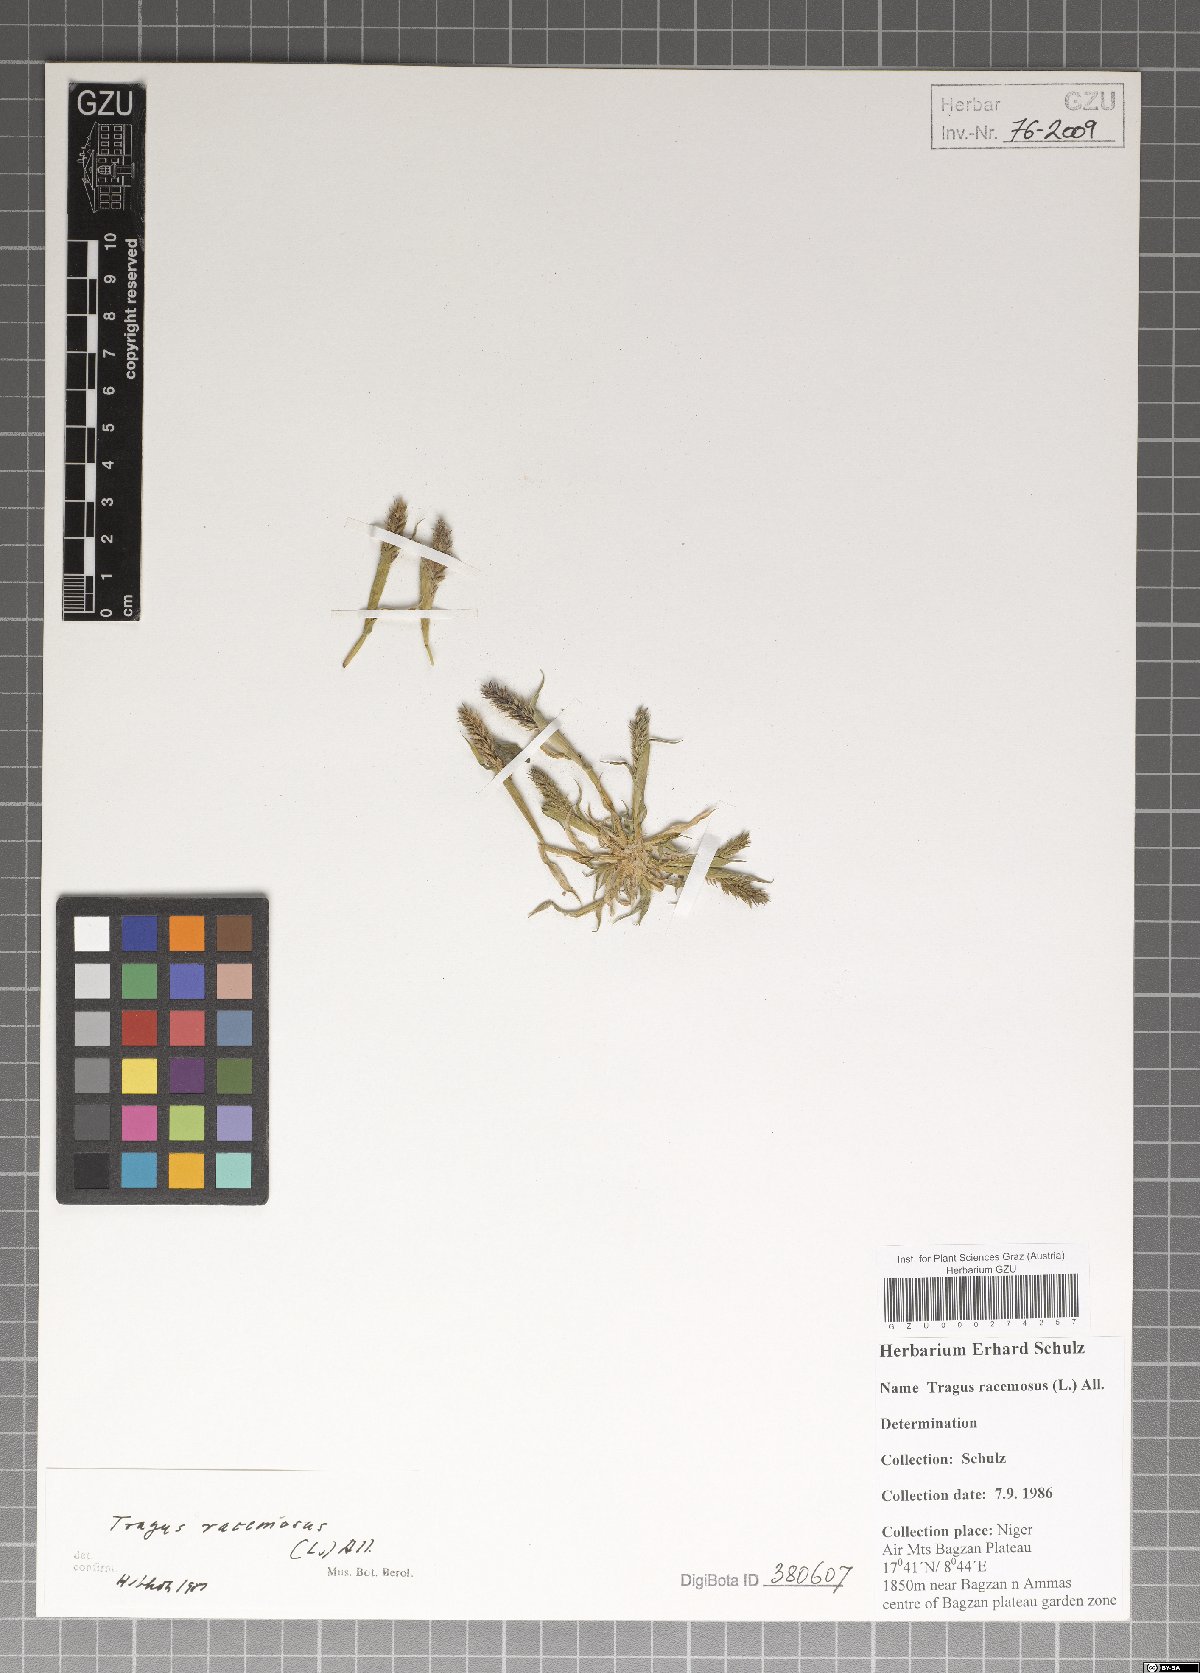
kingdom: Plantae
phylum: Tracheophyta
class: Liliopsida
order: Poales
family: Poaceae
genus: Tragus
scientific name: Tragus racemosus
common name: European bur-grass
